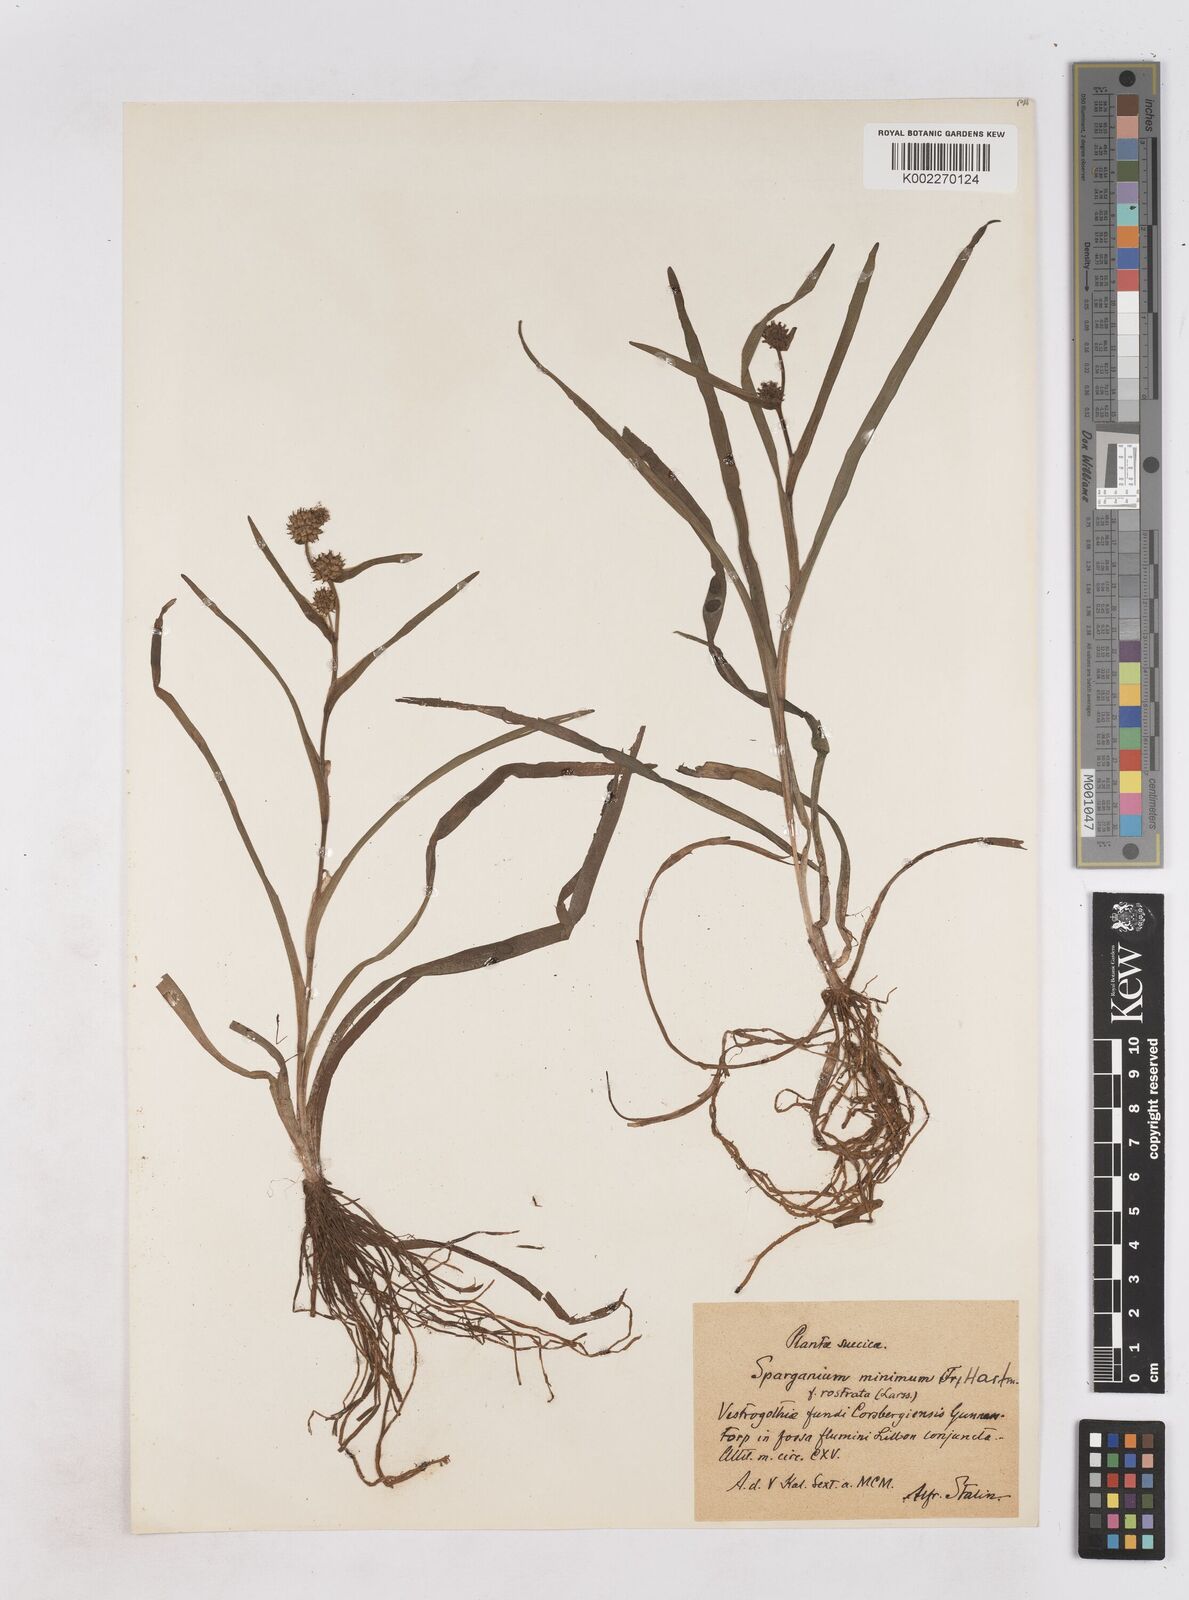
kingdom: Plantae
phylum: Tracheophyta
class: Liliopsida
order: Poales
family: Typhaceae
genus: Sparganium
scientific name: Sparganium natans
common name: Least bur-reed
